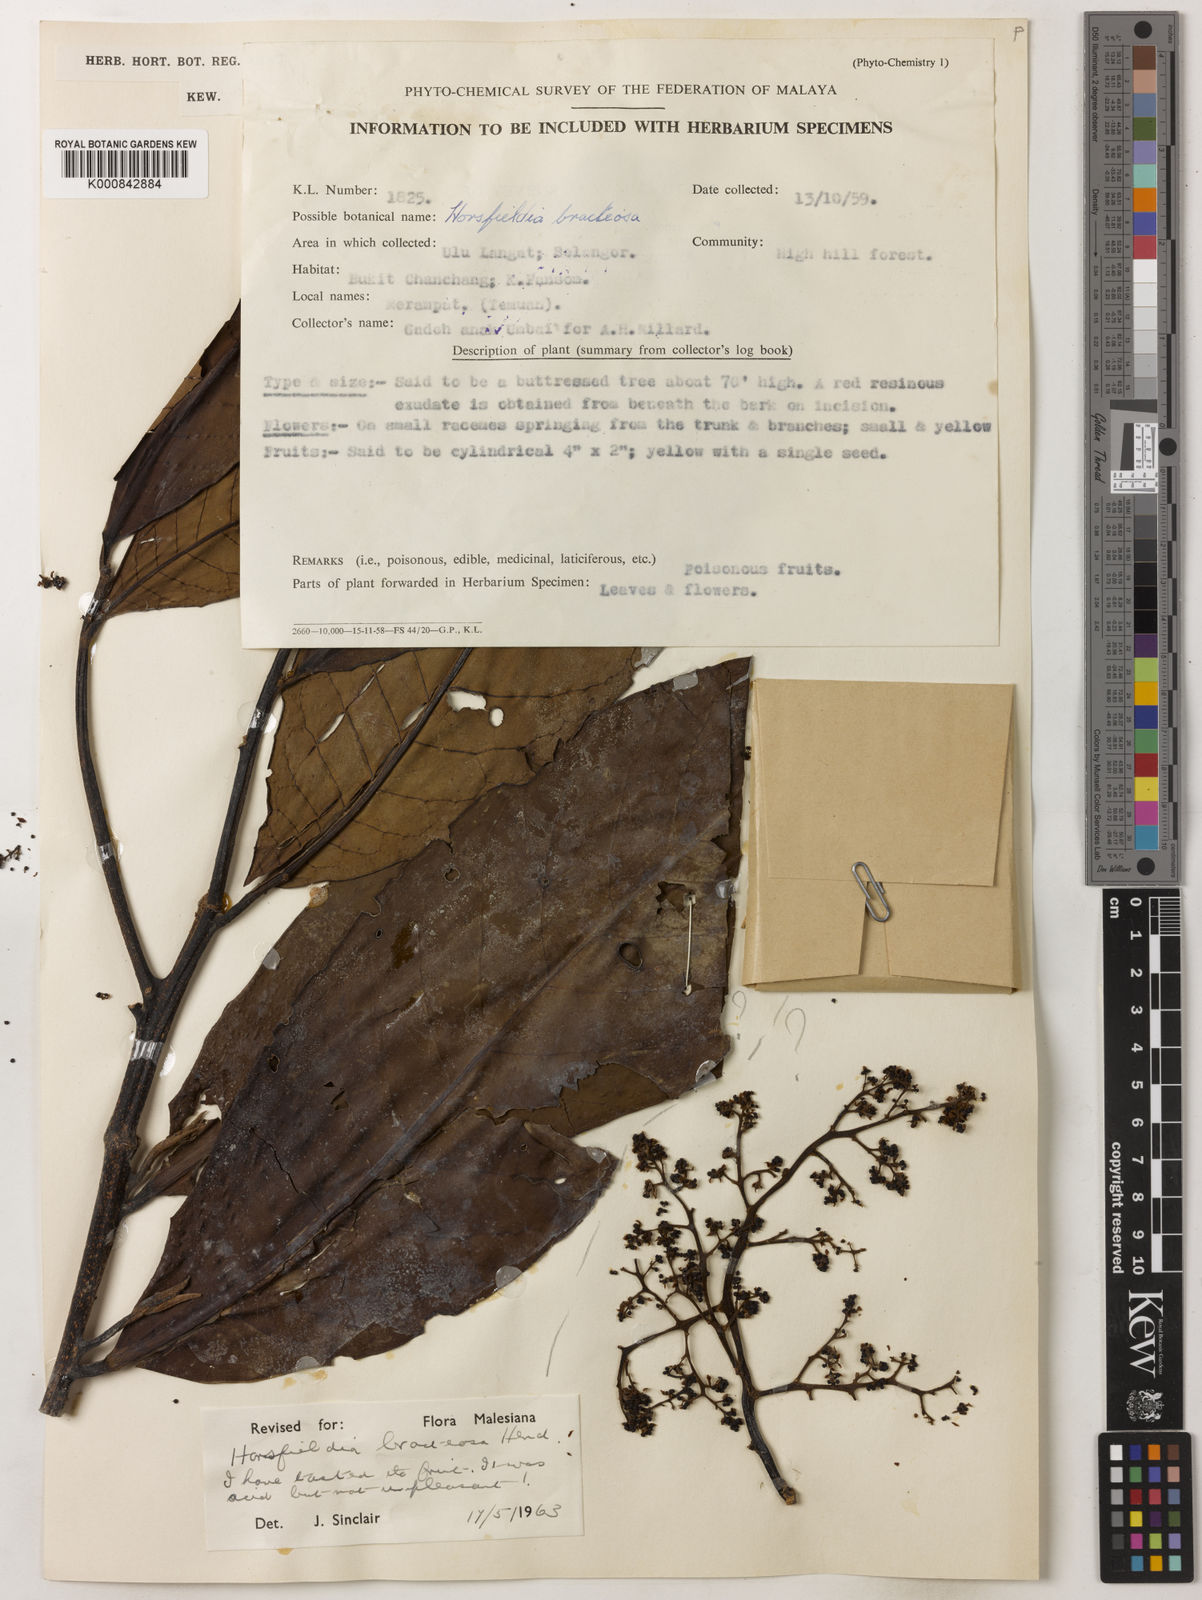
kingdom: Plantae
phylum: Tracheophyta
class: Magnoliopsida
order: Magnoliales
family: Myristicaceae
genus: Horsfieldia
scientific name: Horsfieldia sucosa
